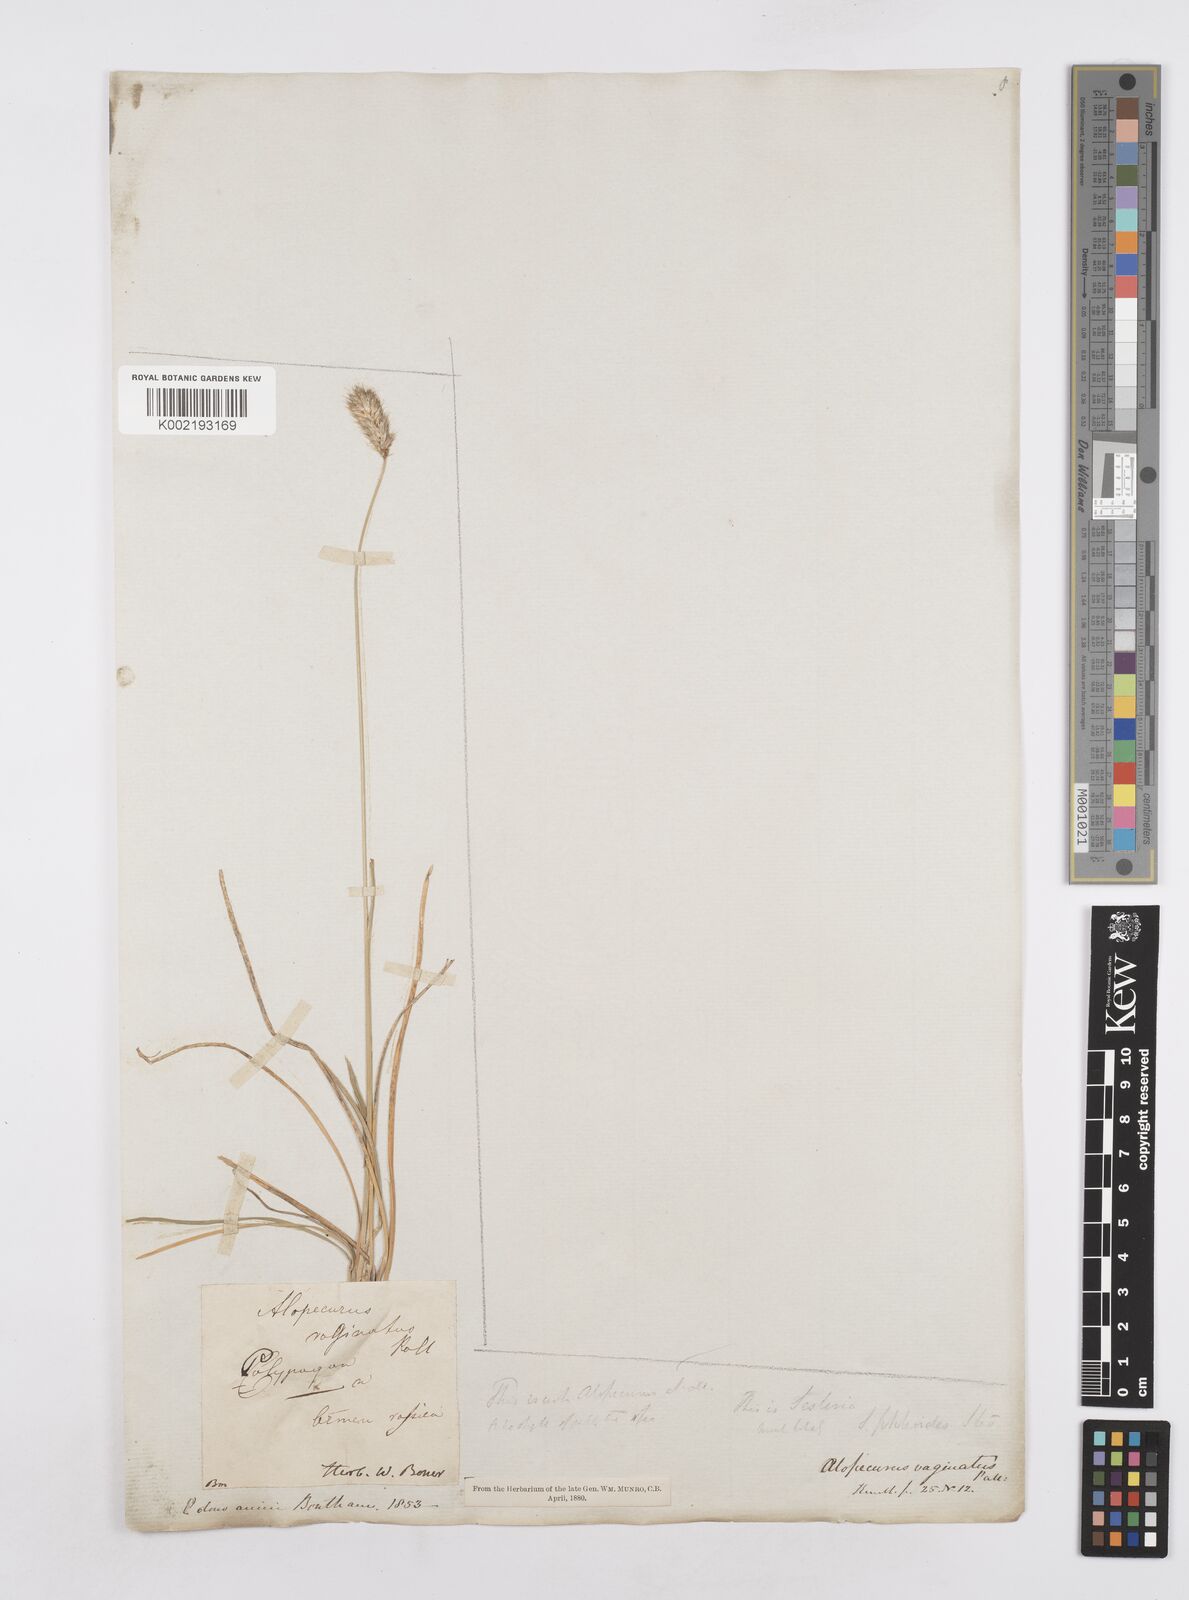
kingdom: Plantae
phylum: Tracheophyta
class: Liliopsida
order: Poales
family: Poaceae
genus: Sesleria
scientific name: Sesleria phleoides
